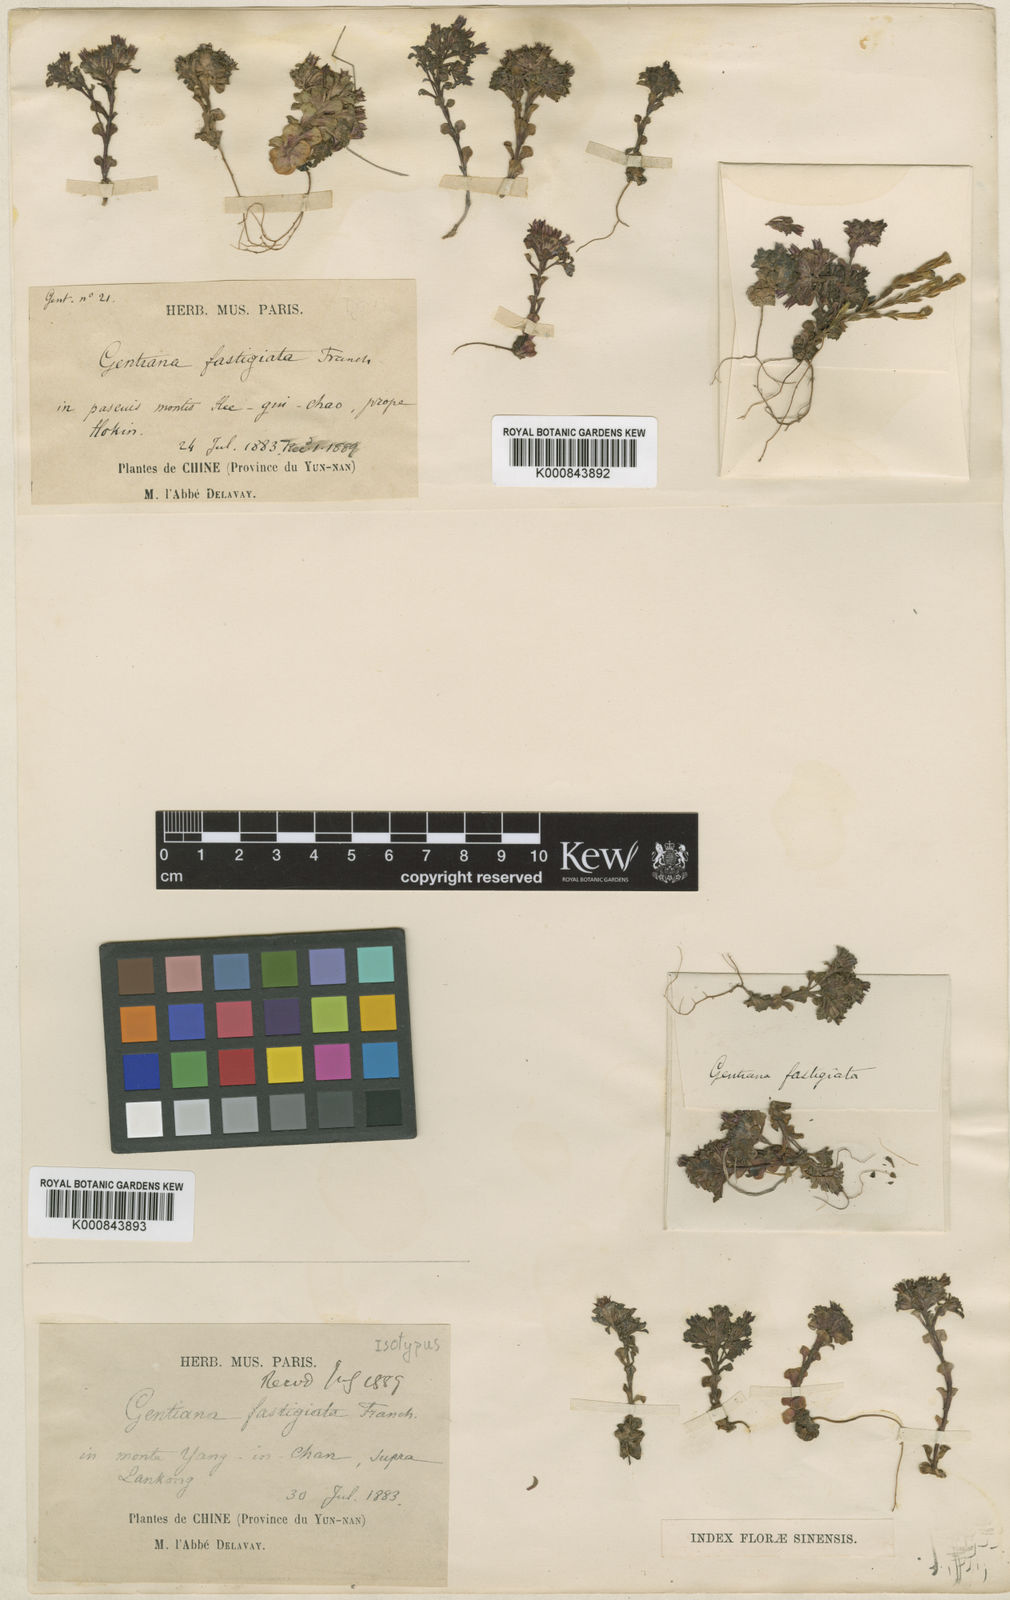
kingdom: Plantae
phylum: Tracheophyta
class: Magnoliopsida
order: Gentianales
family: Gentianaceae
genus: Gentiana
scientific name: Gentiana intricata
